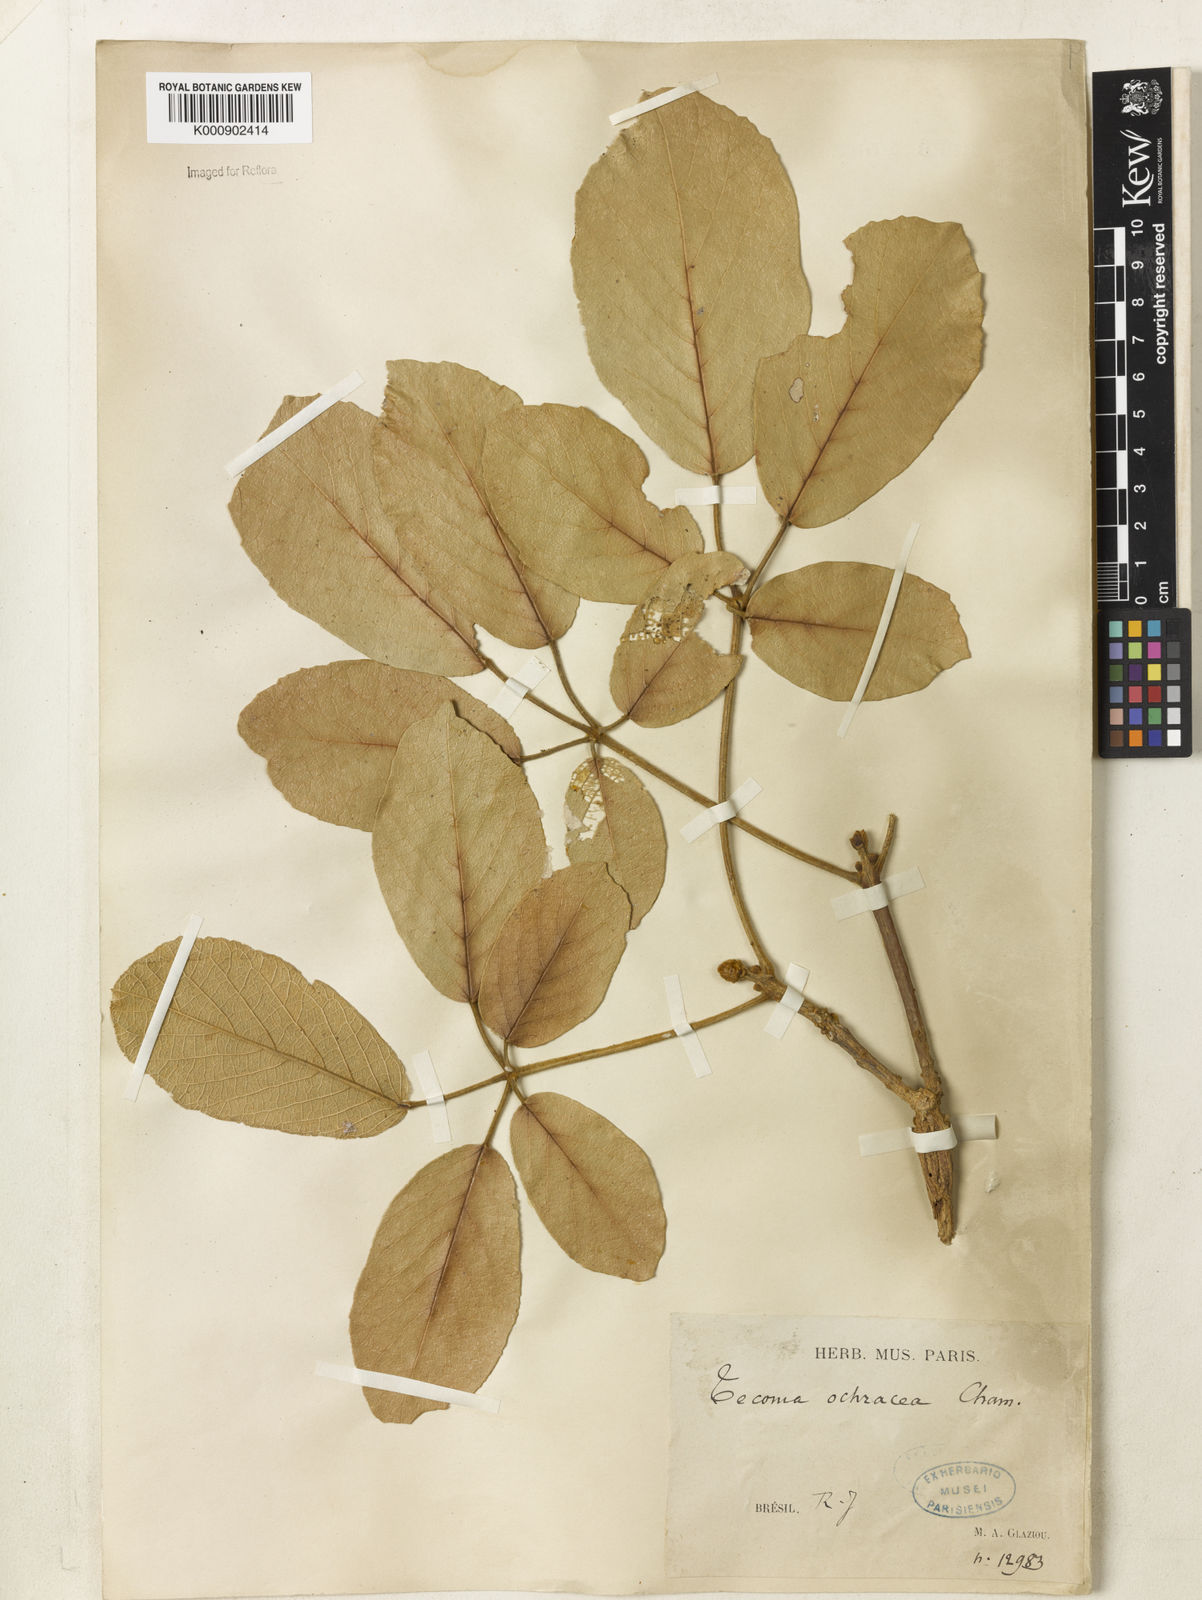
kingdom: Plantae
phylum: Tracheophyta
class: Magnoliopsida
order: Lamiales
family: Bignoniaceae
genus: Handroanthus
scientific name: Handroanthus ochraceus
